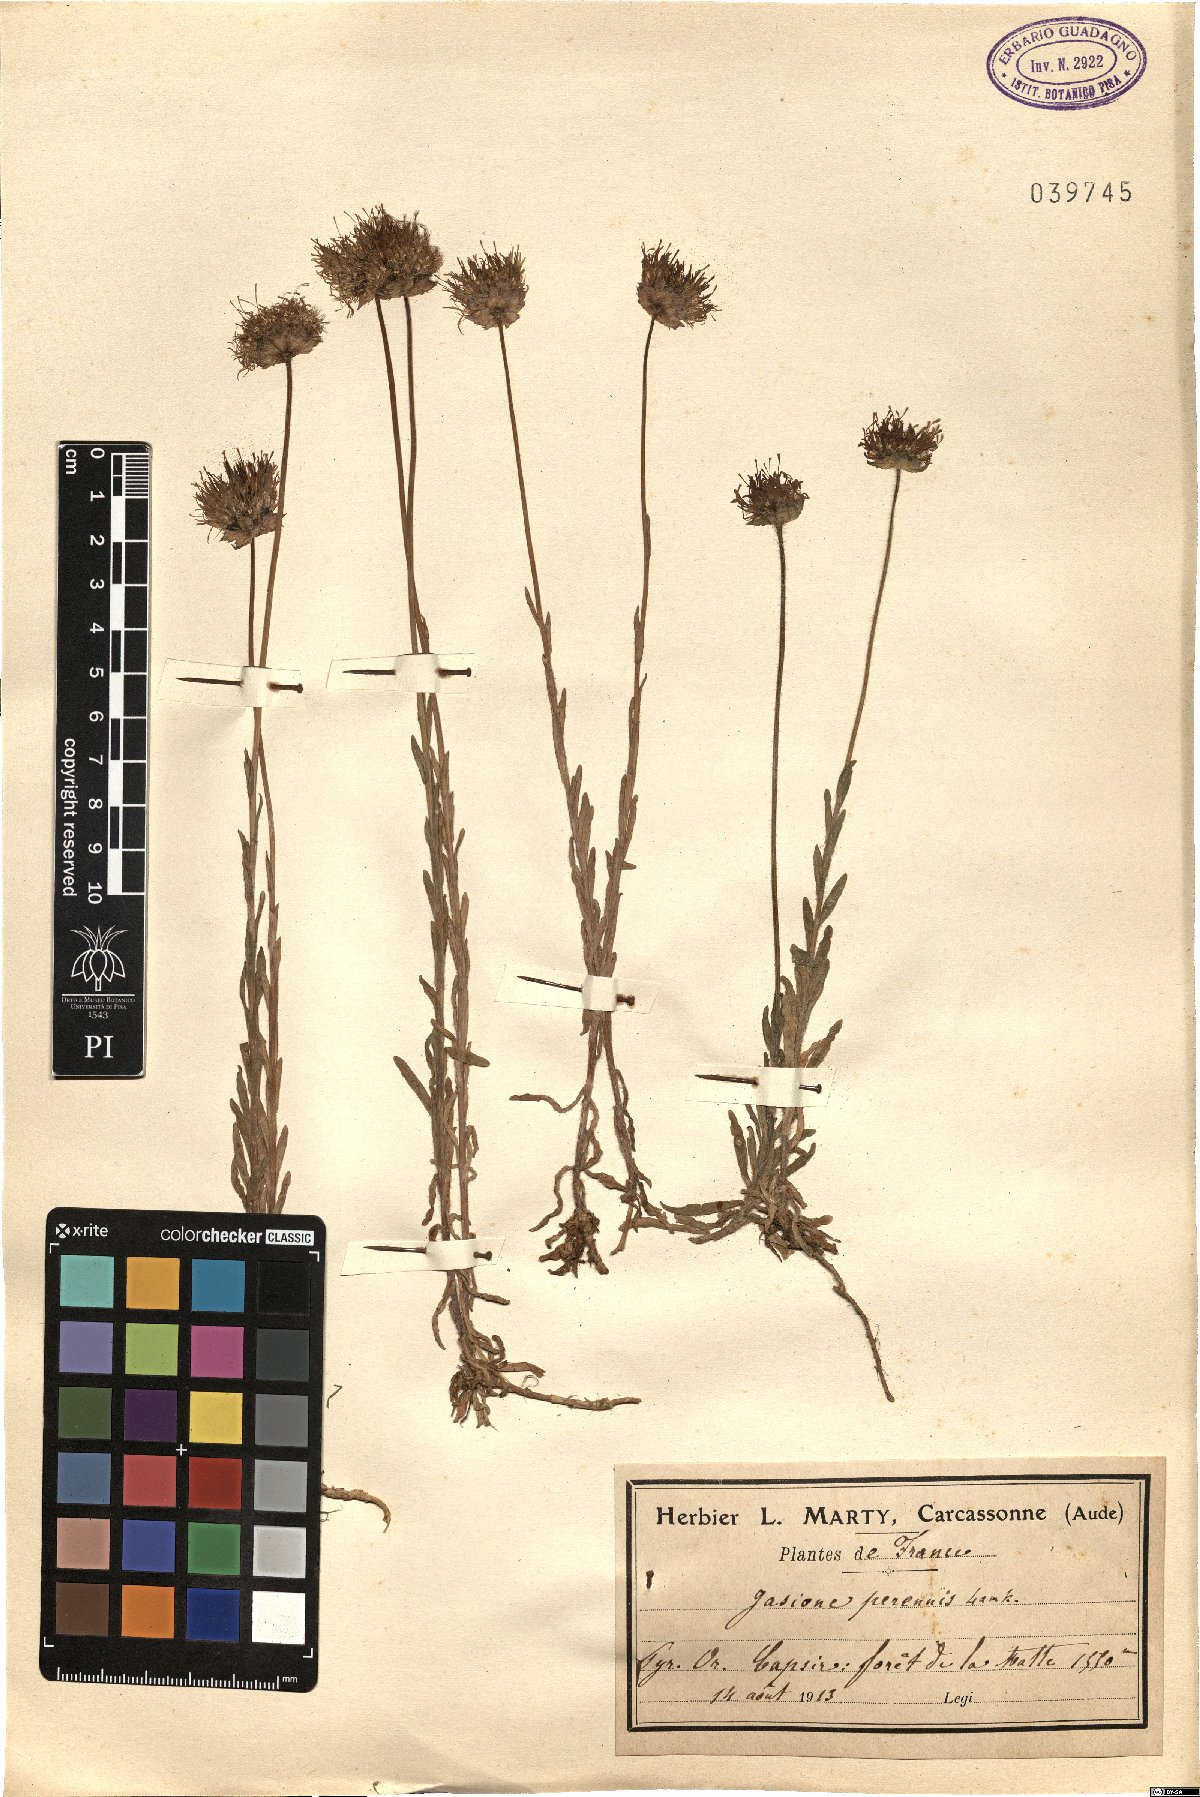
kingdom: Plantae
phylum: Tracheophyta
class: Magnoliopsida
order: Asterales
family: Campanulaceae
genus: Jasione
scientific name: Jasione laevis
